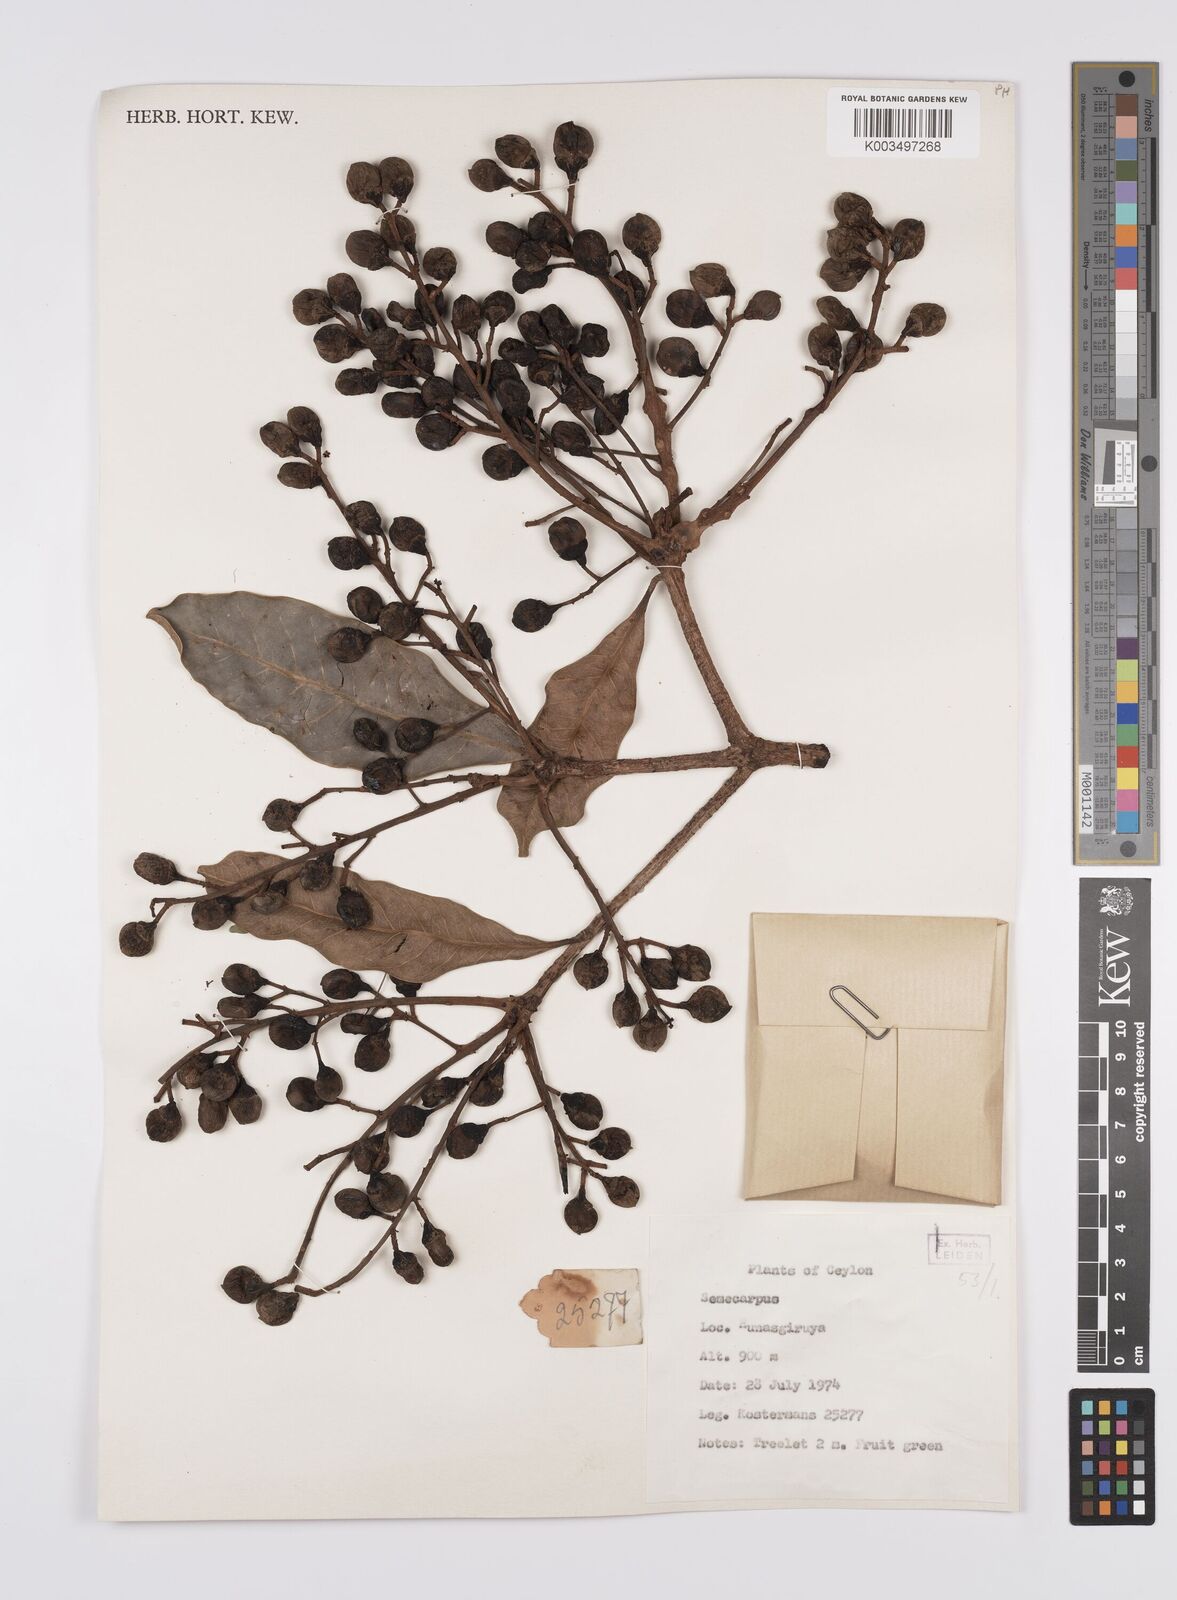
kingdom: Plantae
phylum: Tracheophyta
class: Magnoliopsida
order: Sapindales
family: Anacardiaceae
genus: Semecarpus
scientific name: Semecarpus
